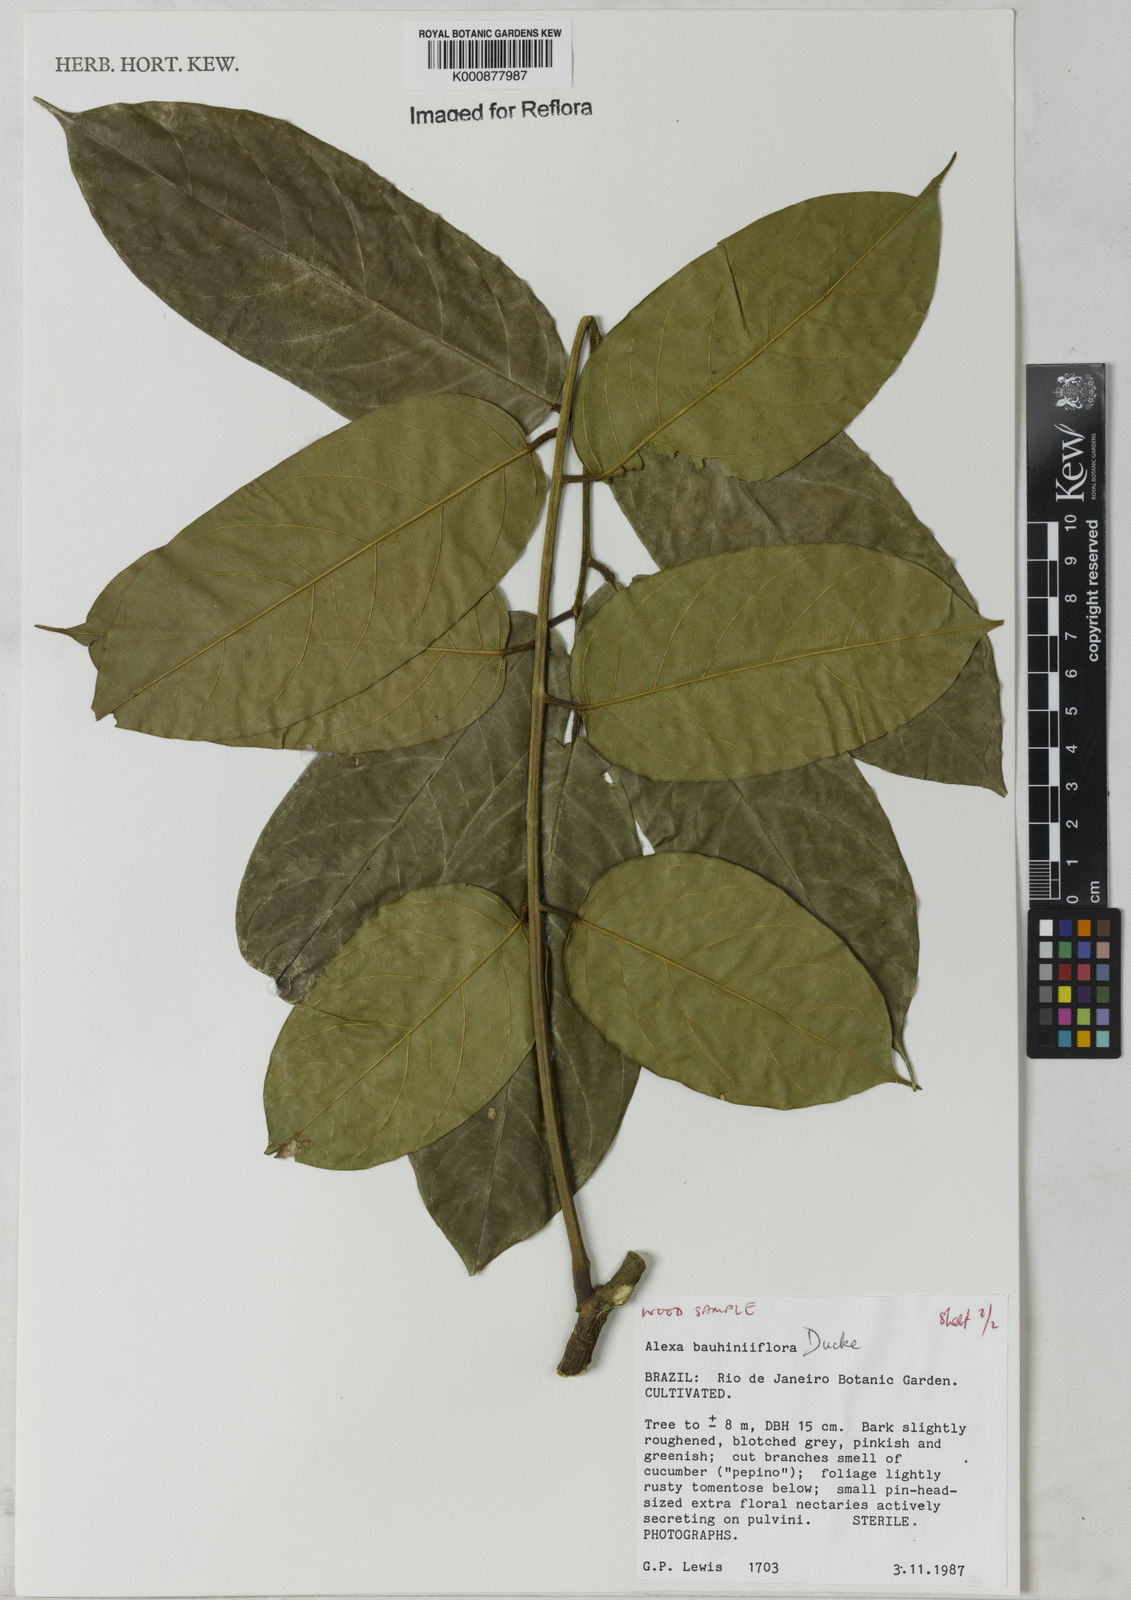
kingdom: Plantae
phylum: Tracheophyta
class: Magnoliopsida
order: Fabales
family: Fabaceae
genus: Alexa
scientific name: Alexa bauhiniiflora
